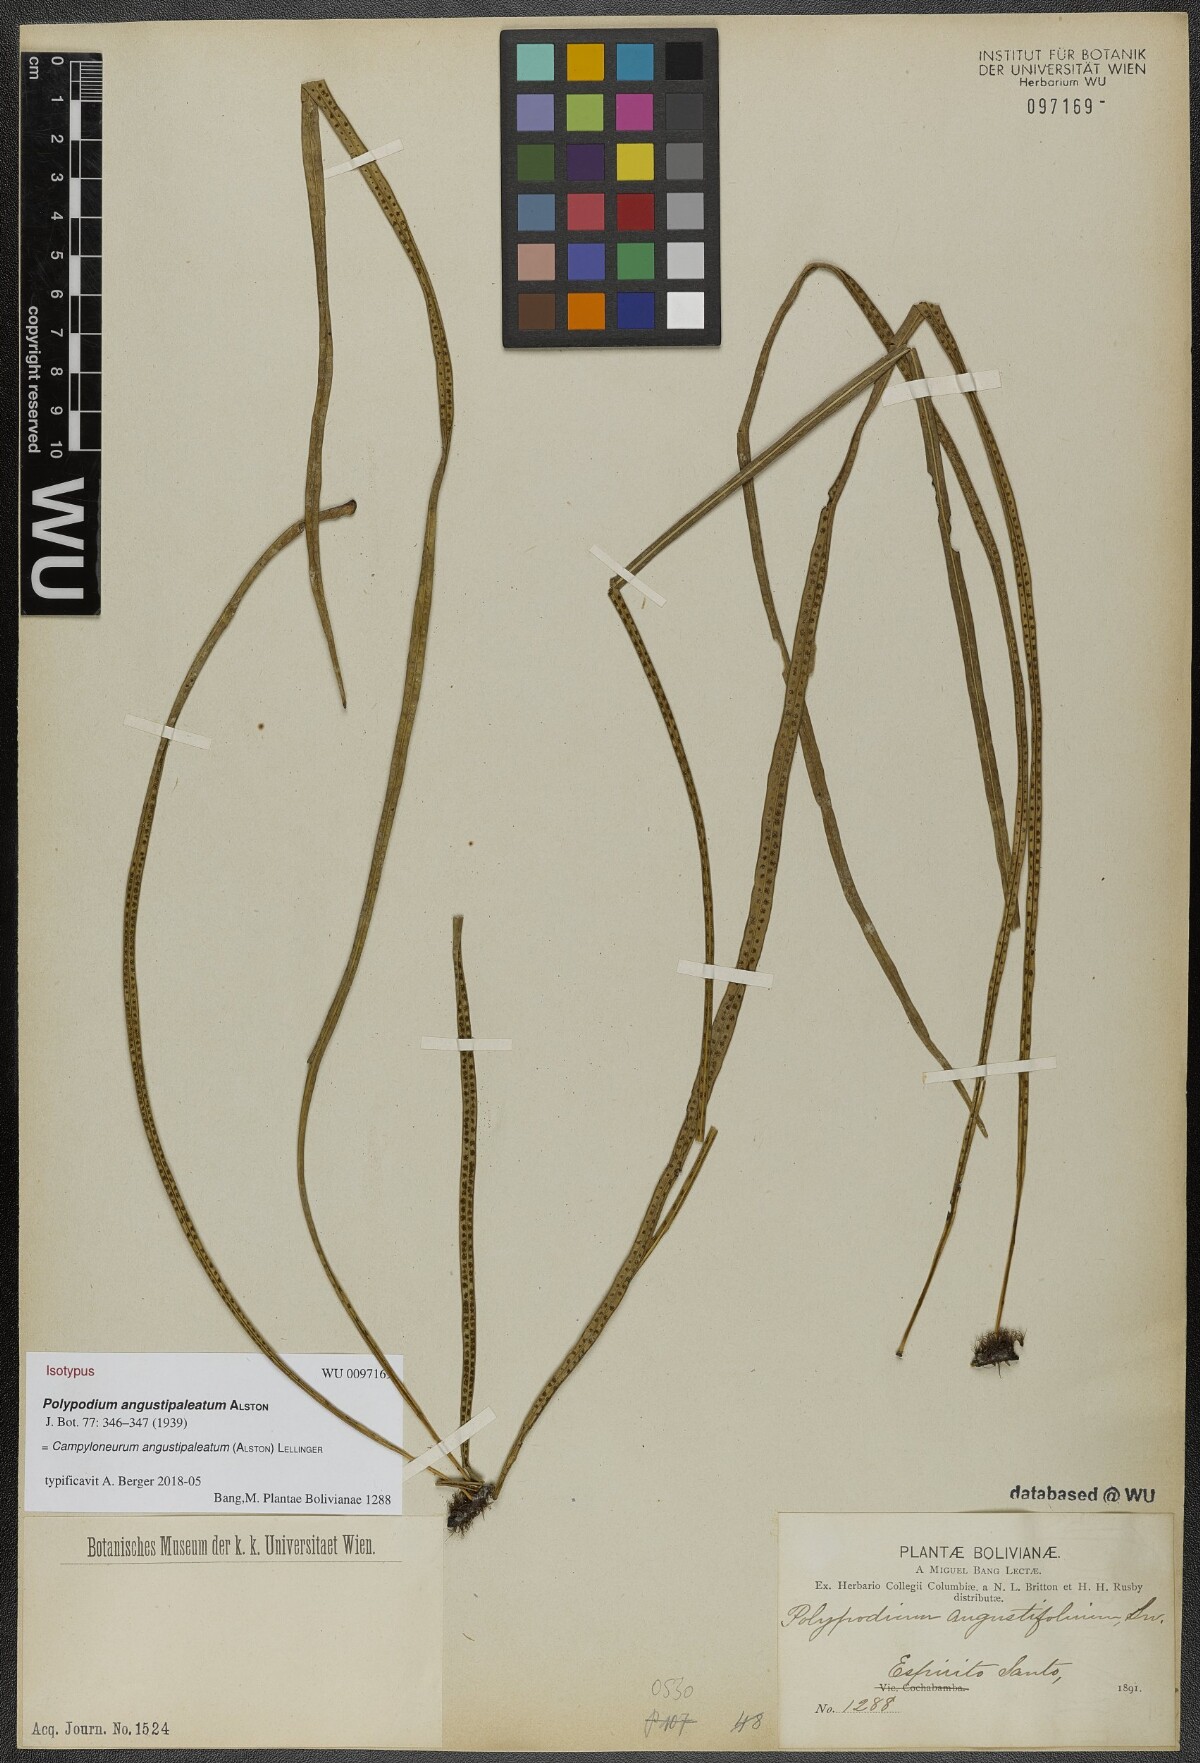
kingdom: Plantae
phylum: Tracheophyta
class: Polypodiopsida
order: Polypodiales
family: Polypodiaceae
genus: Campyloneurum
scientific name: Campyloneurum angustipaleatum
